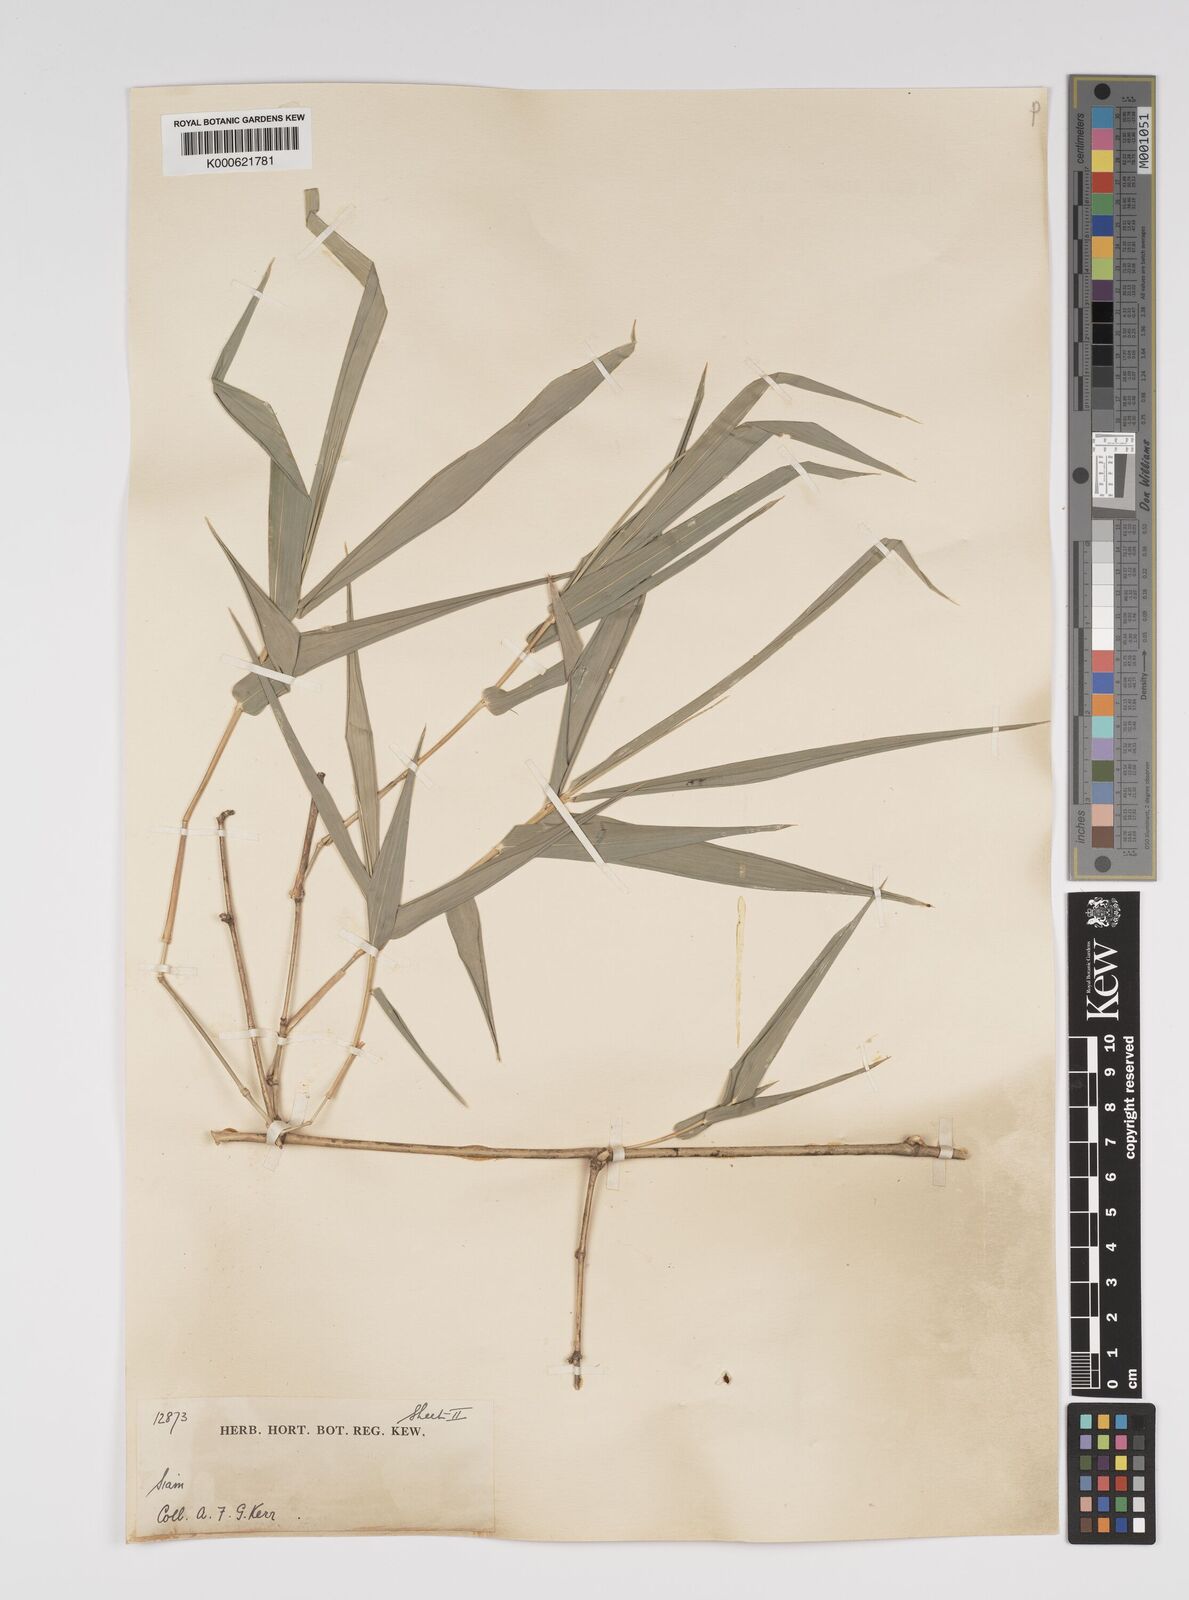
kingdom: Plantae
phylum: Tracheophyta
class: Liliopsida
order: Poales
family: Poaceae
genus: Bambusa
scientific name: Bambusa bambos
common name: Indian thorny bamboo
